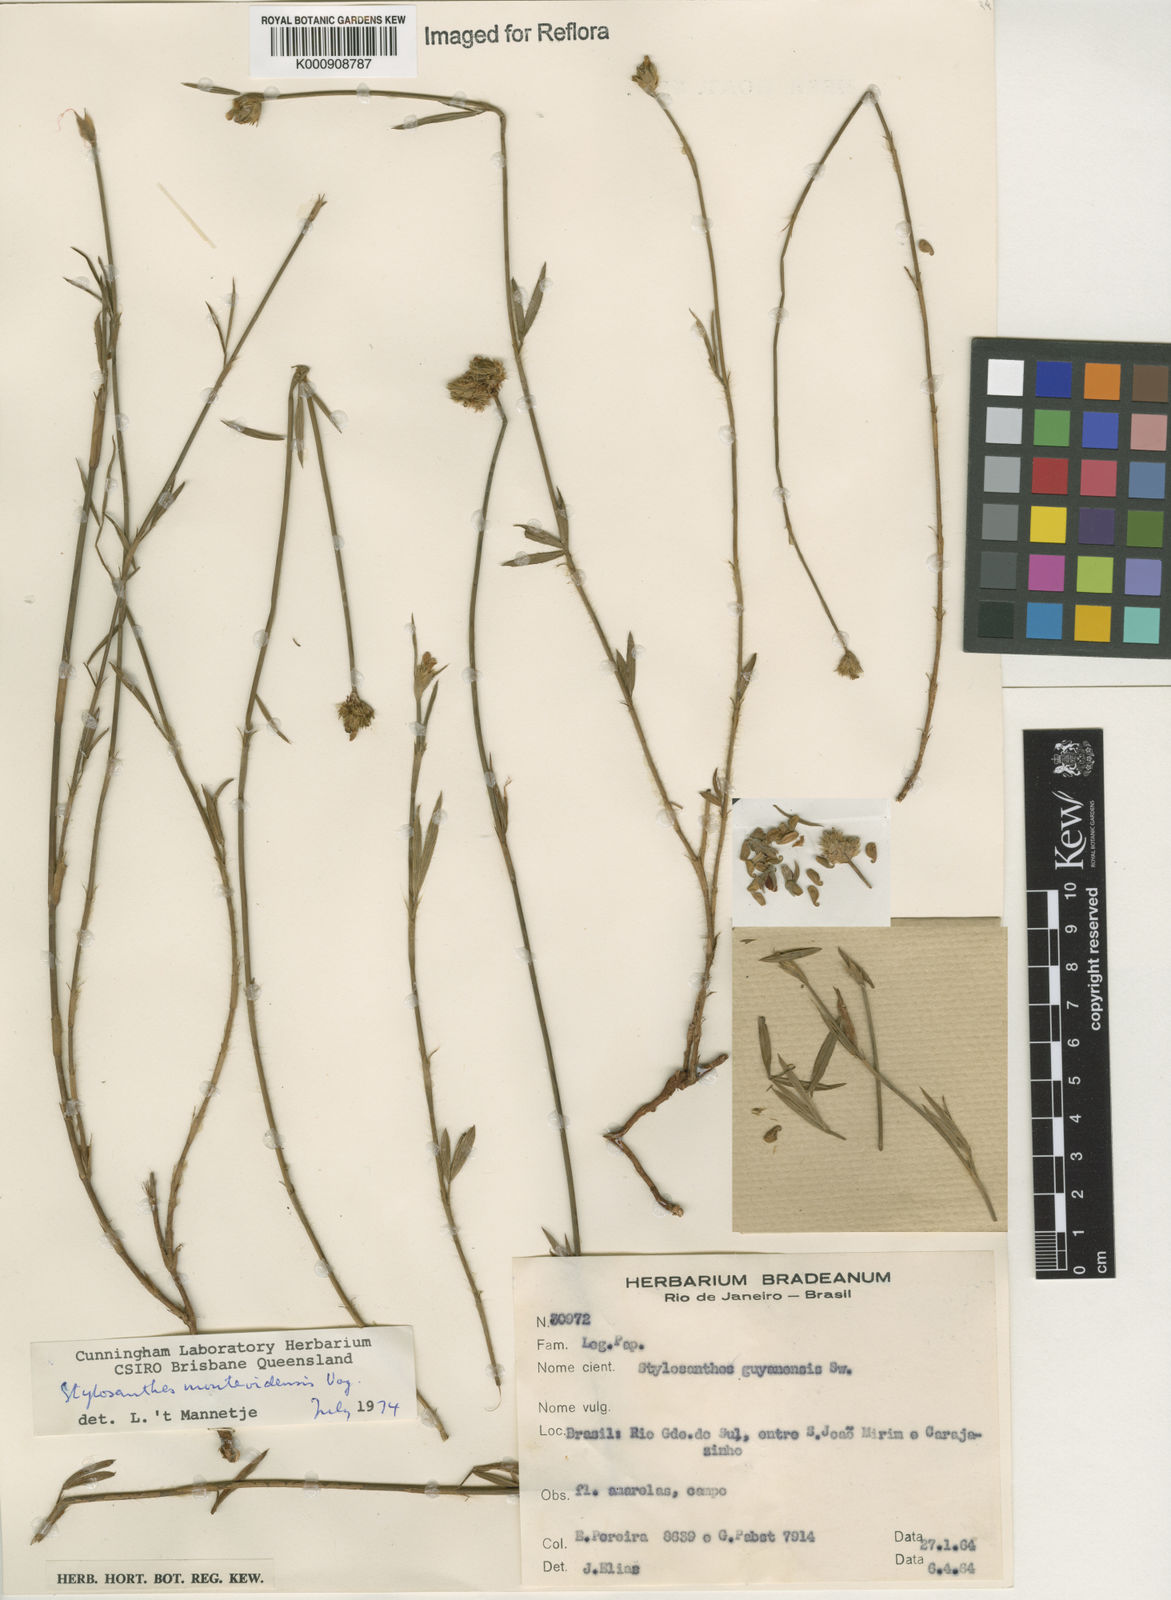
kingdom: Plantae
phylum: Tracheophyta
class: Magnoliopsida
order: Fabales
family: Fabaceae
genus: Stylosanthes
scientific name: Stylosanthes montevidensis
